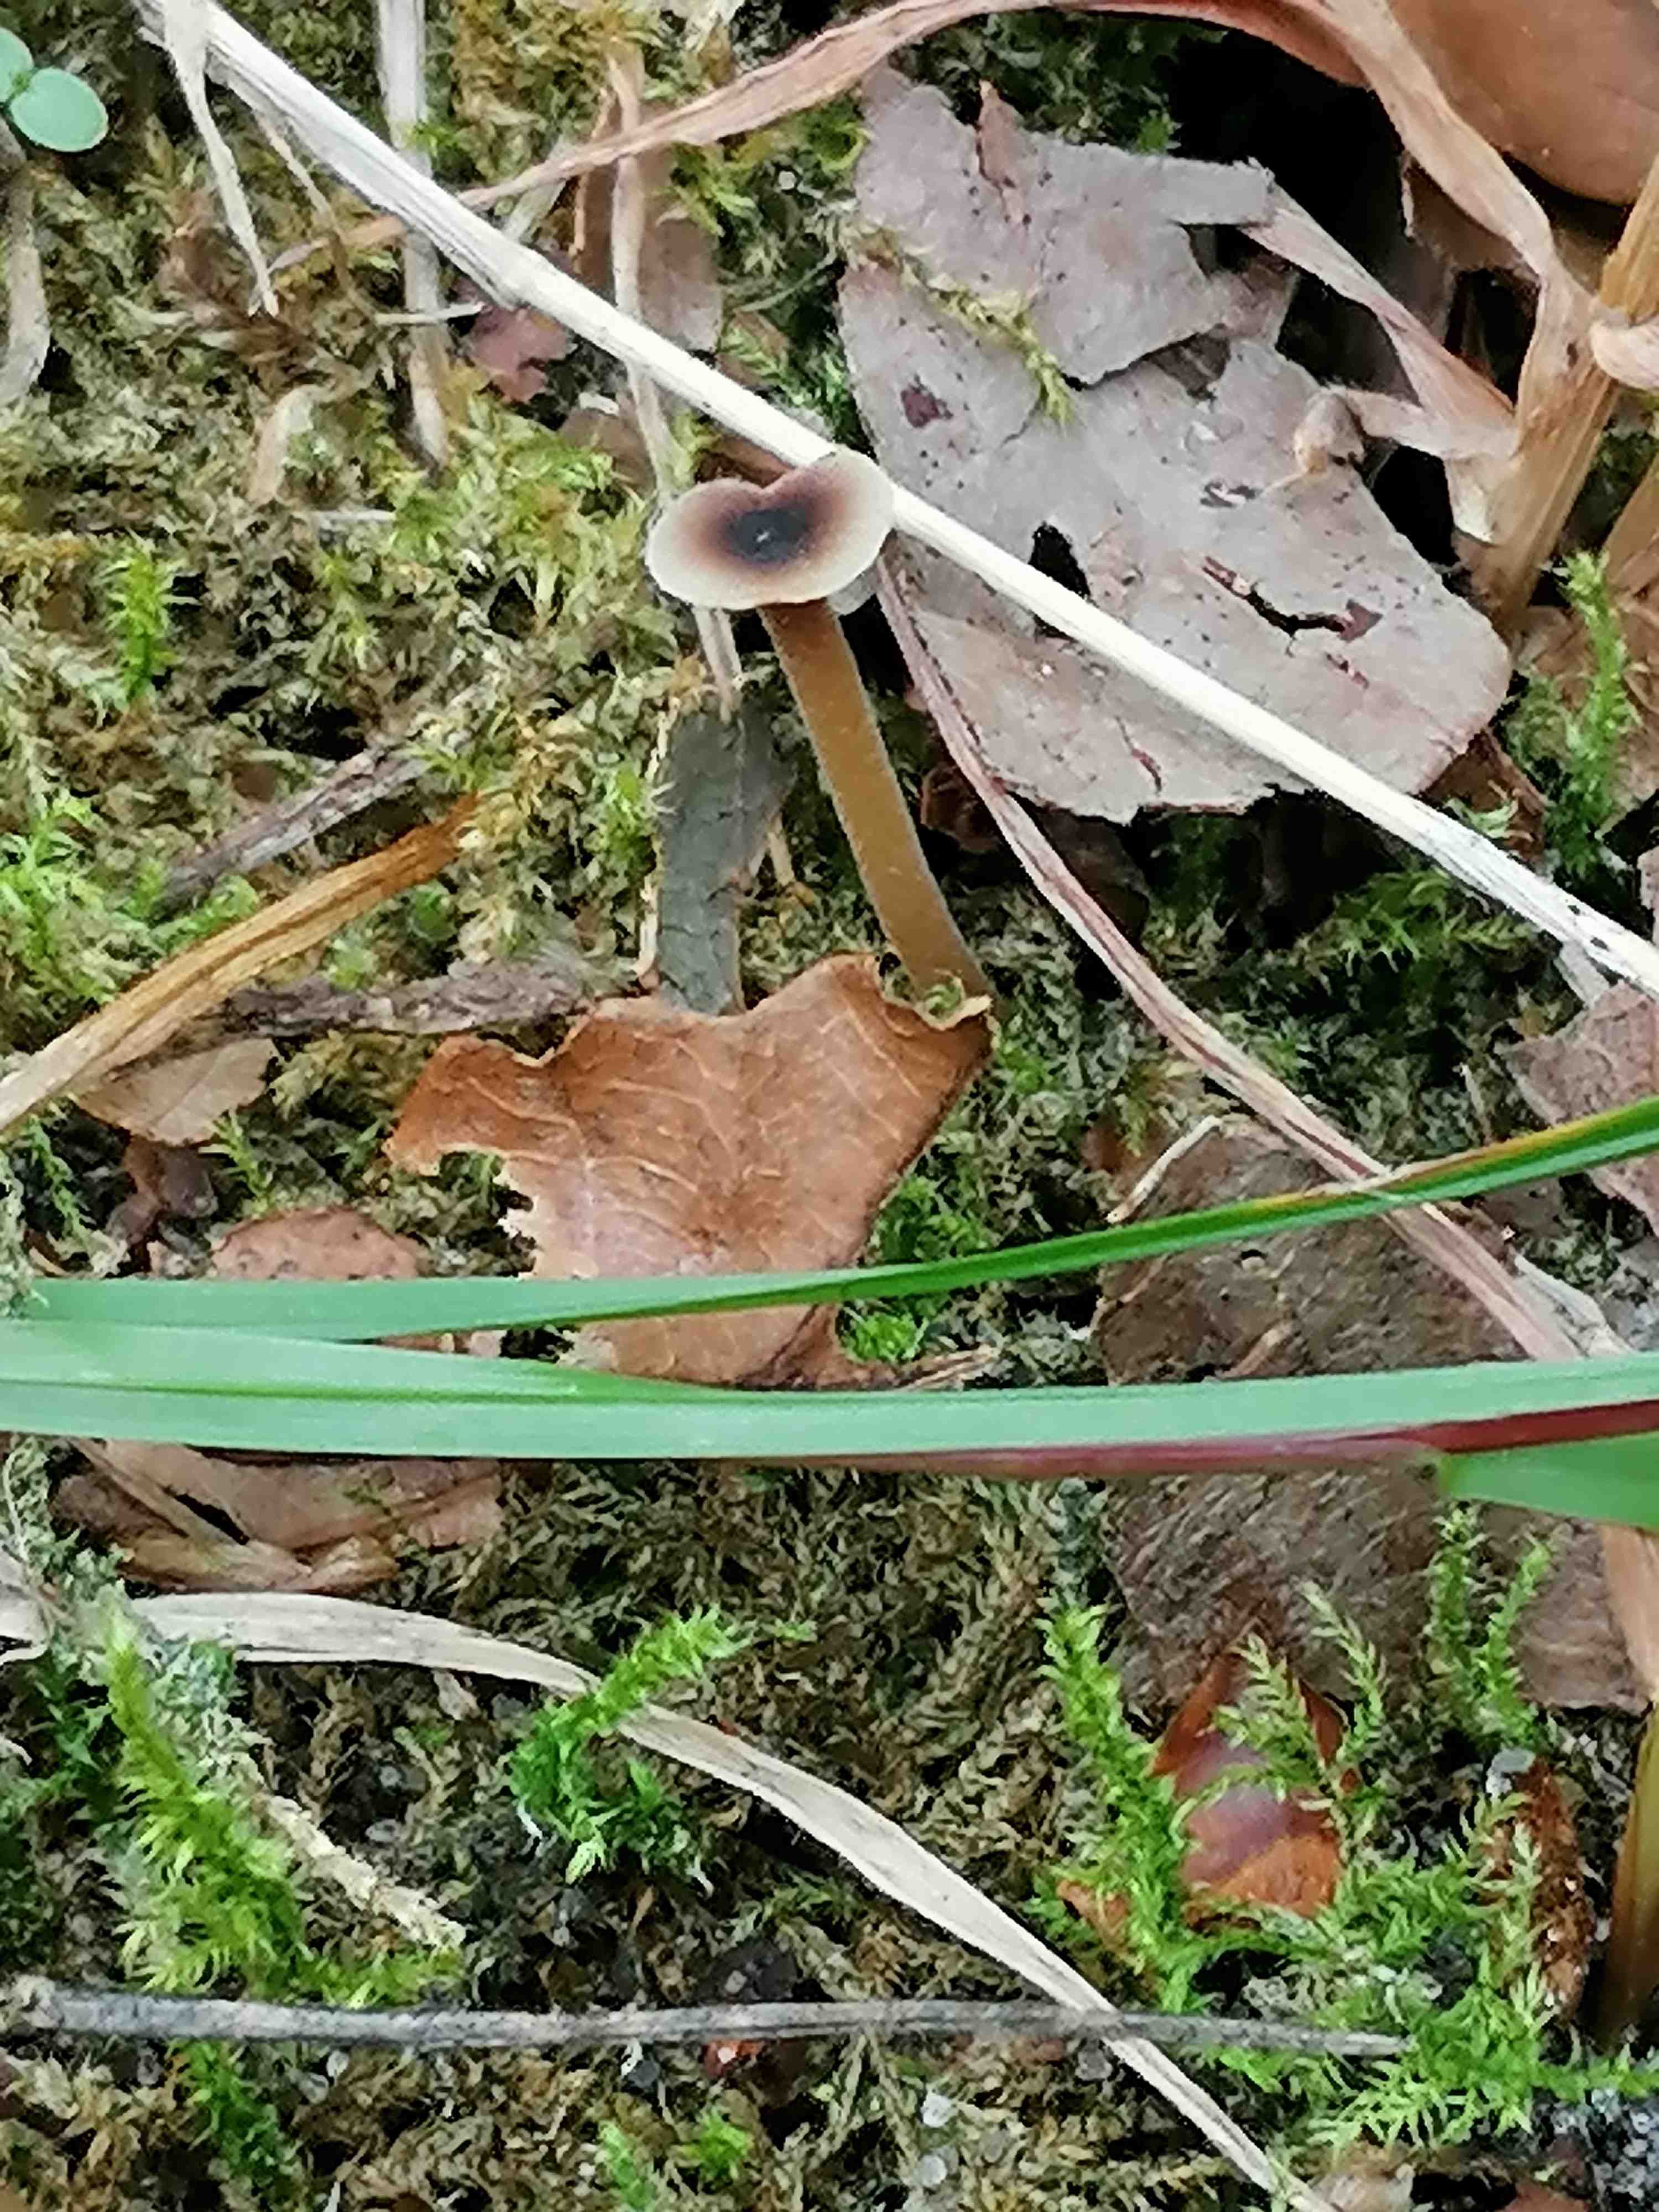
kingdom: Fungi
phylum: Basidiomycota
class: Agaricomycetes
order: Hymenochaetales
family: Rickenellaceae
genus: Rickenella
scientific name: Rickenella swartzii
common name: finstokket mosnavlehat
